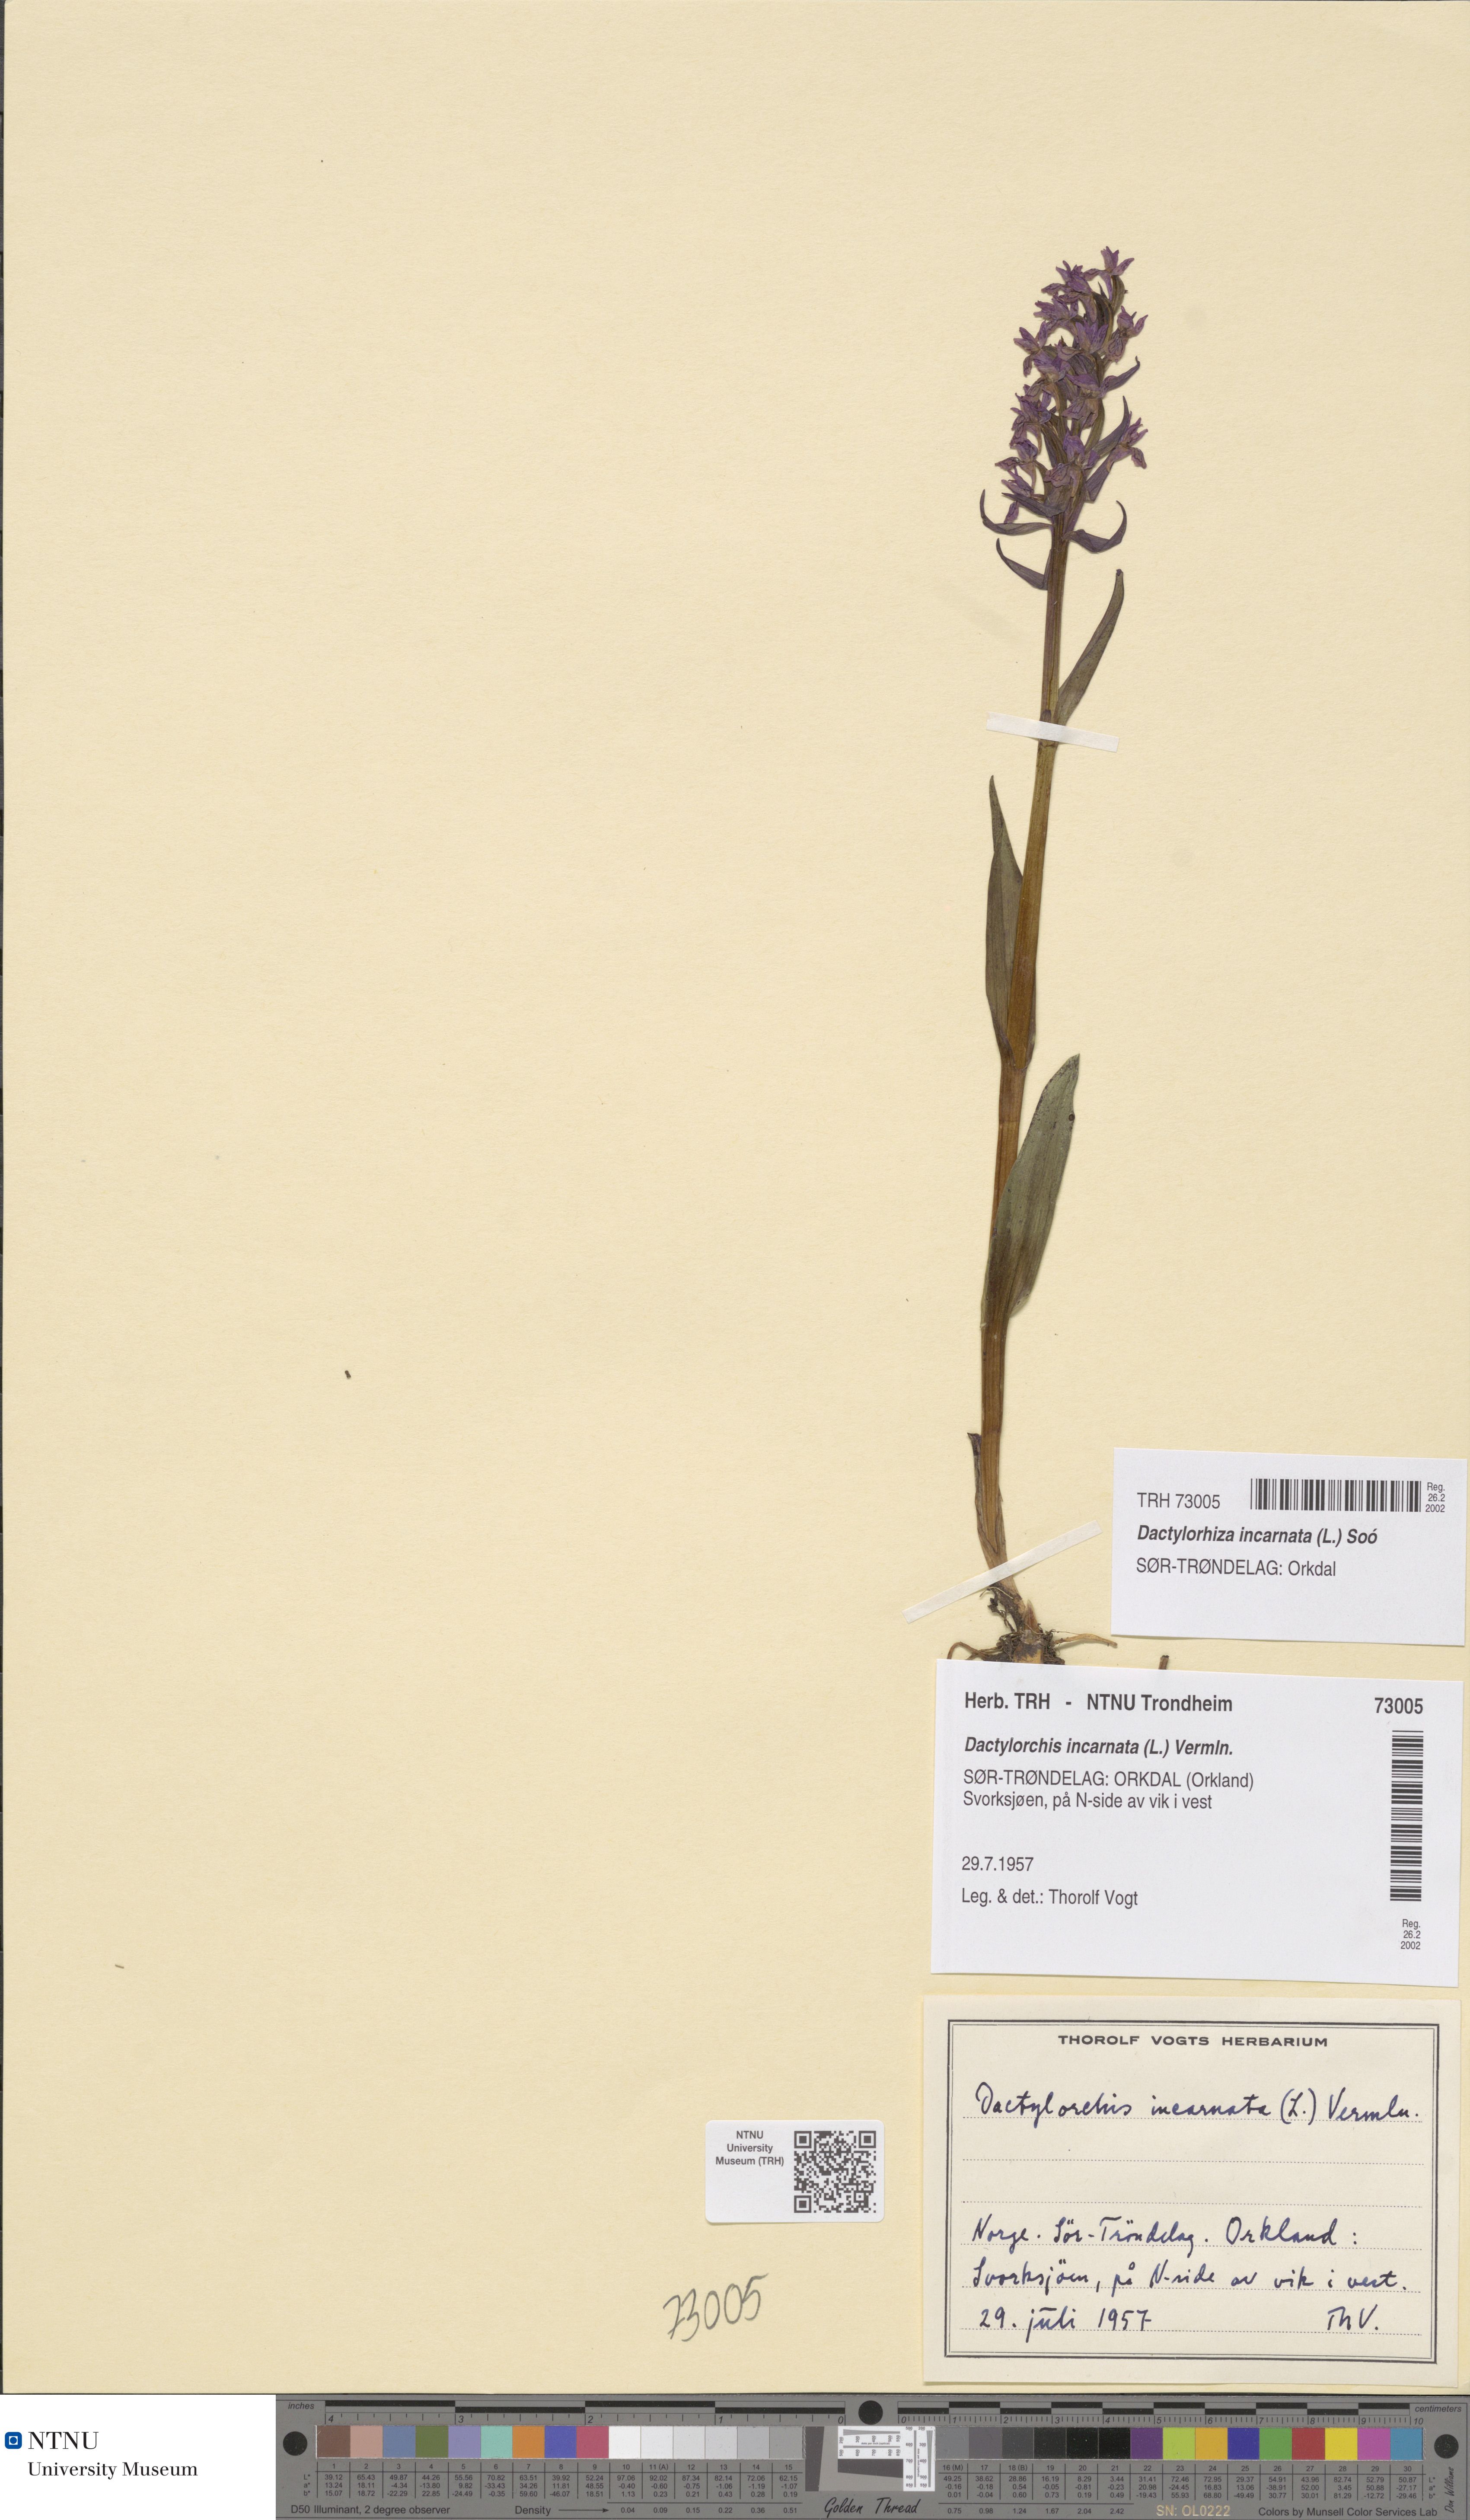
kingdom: Plantae
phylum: Tracheophyta
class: Liliopsida
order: Asparagales
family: Orchidaceae
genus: Dactylorhiza
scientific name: Dactylorhiza incarnata
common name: Early marsh-orchid
